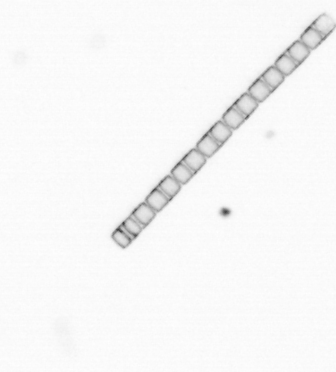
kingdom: Chromista
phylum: Ochrophyta
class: Bacillariophyceae
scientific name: Bacillariophyceae
